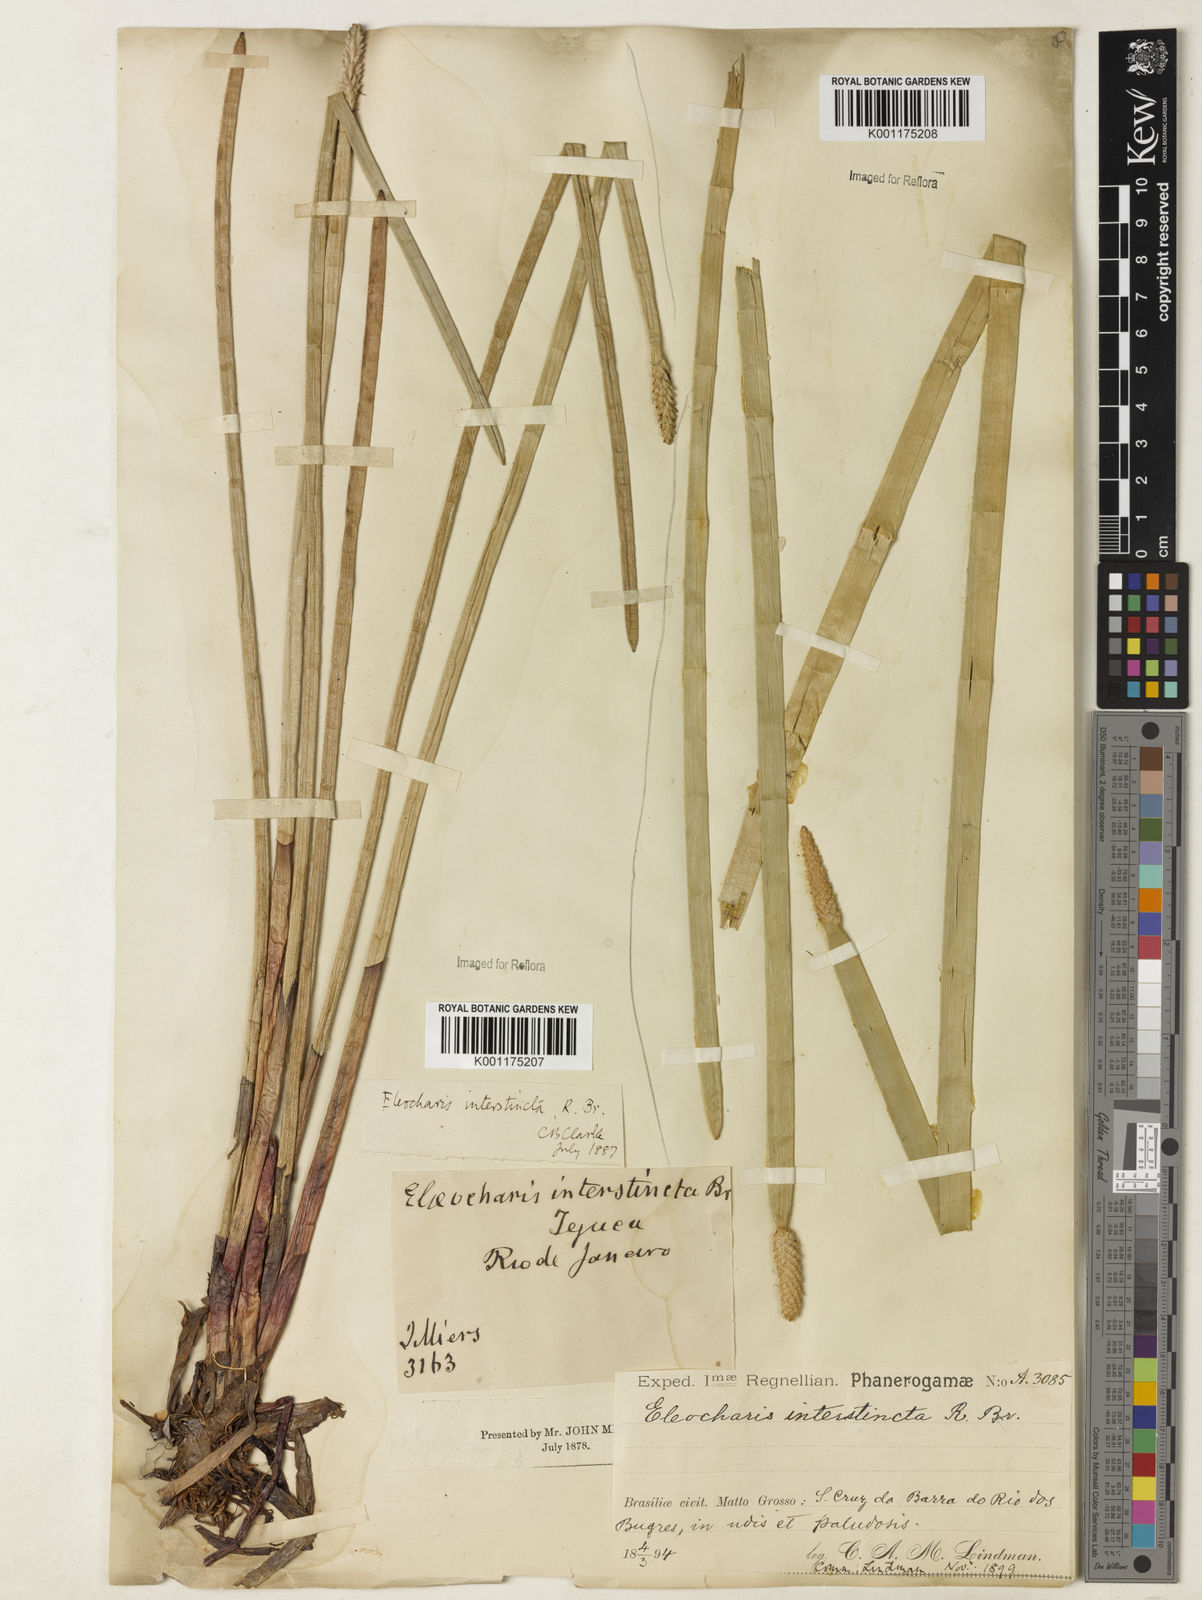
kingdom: Plantae
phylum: Tracheophyta
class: Liliopsida
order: Poales
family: Cyperaceae
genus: Eleocharis
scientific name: Eleocharis interstincta
